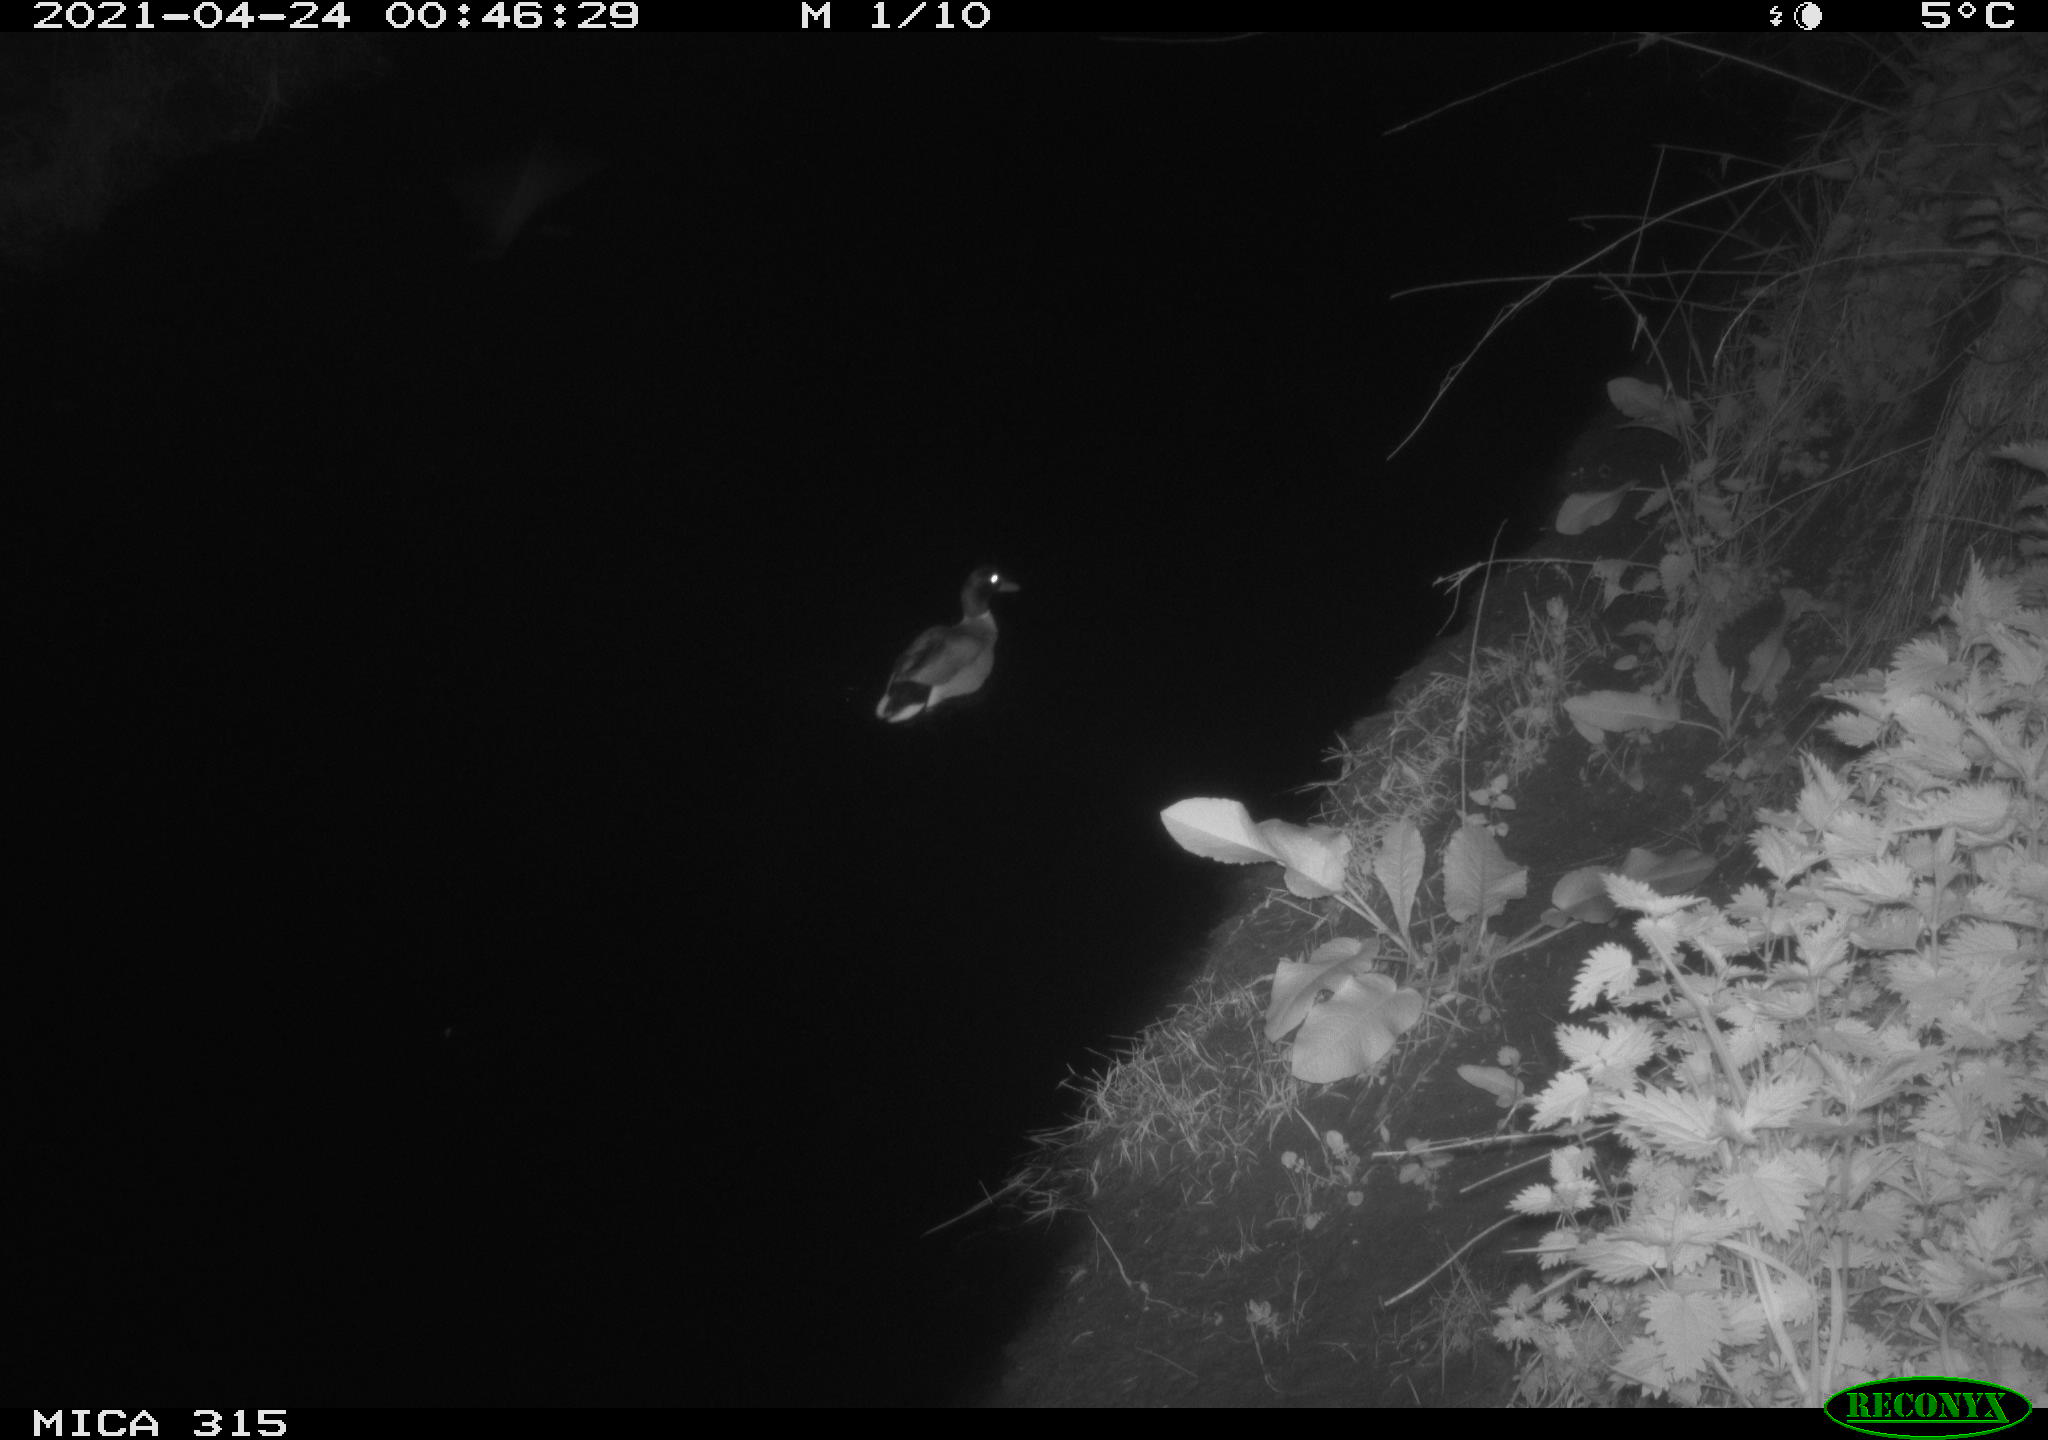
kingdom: Animalia
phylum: Chordata
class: Aves
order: Anseriformes
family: Anatidae
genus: Anas
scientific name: Anas
